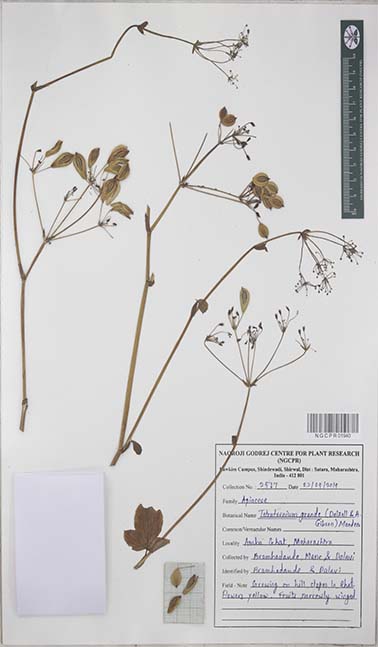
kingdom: Plantae
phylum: Tracheophyta
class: Magnoliopsida
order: Apiales
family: Apiaceae
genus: Tetrataenium
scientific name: Tetrataenium grande
